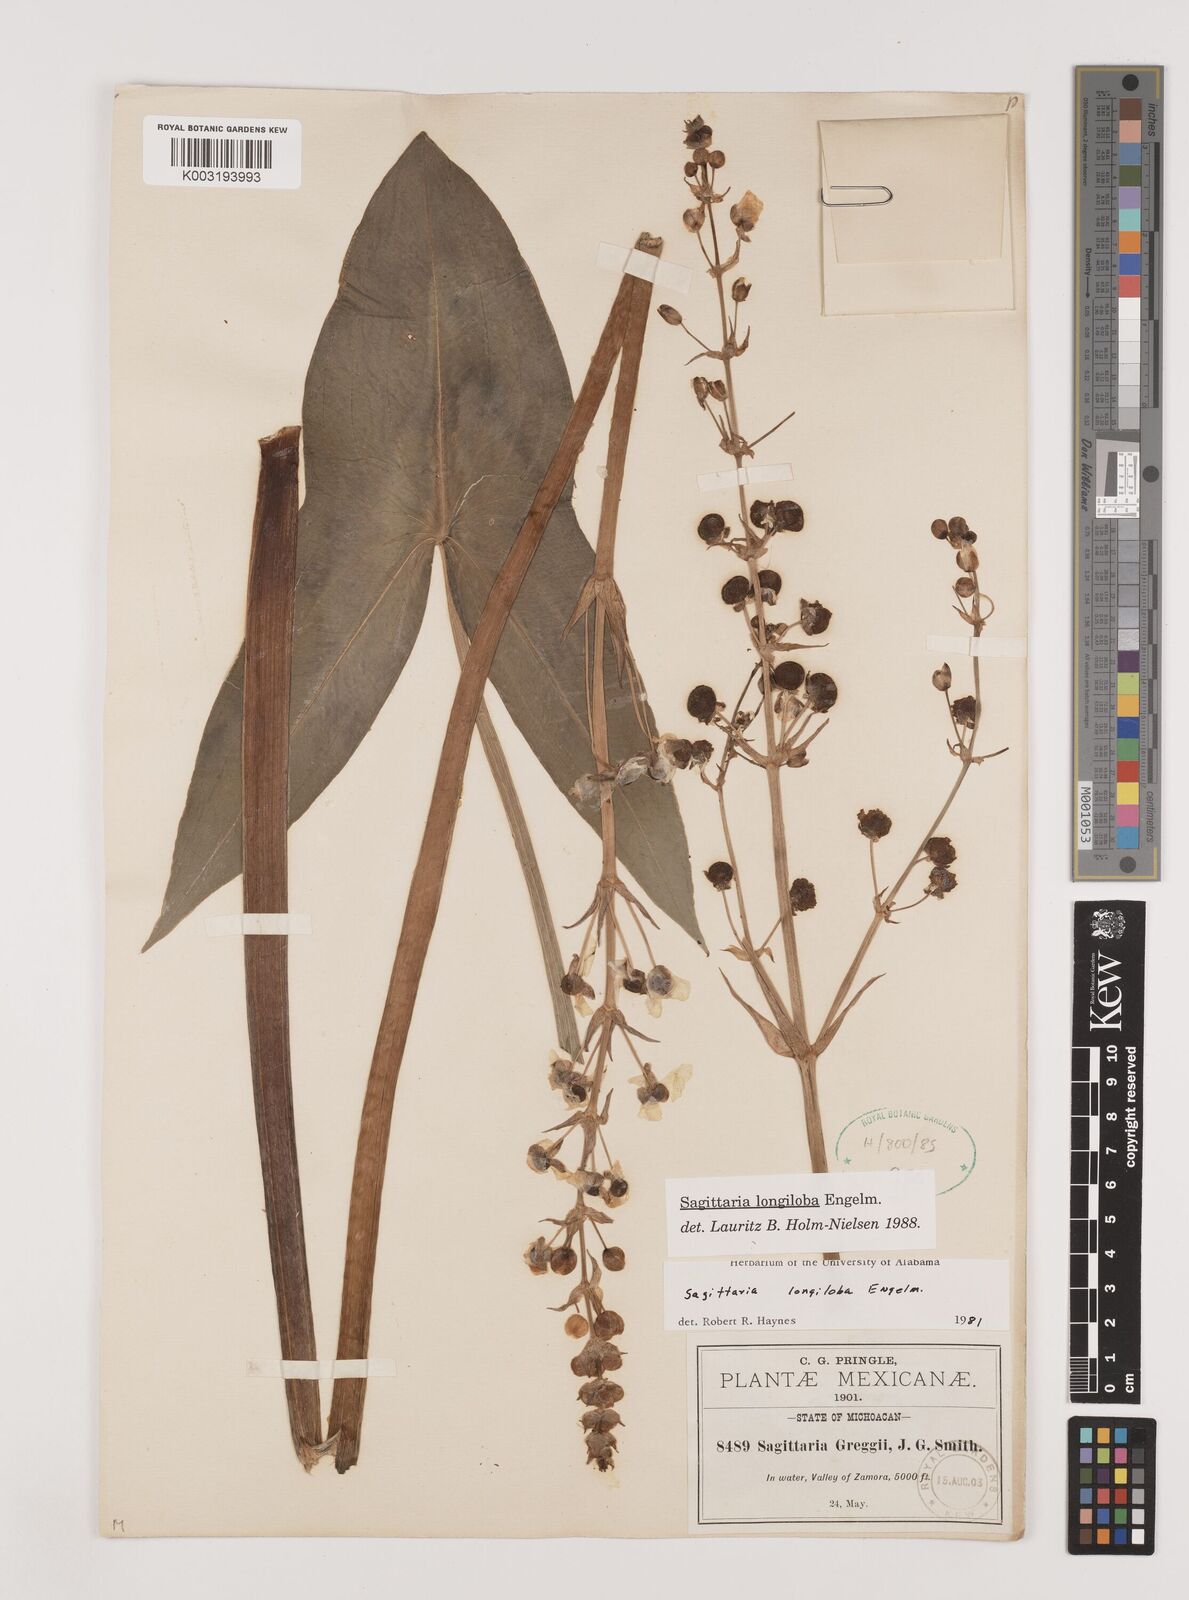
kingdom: Plantae
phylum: Tracheophyta
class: Liliopsida
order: Alismatales
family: Alismataceae
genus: Sagittaria
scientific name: Sagittaria longiloba
